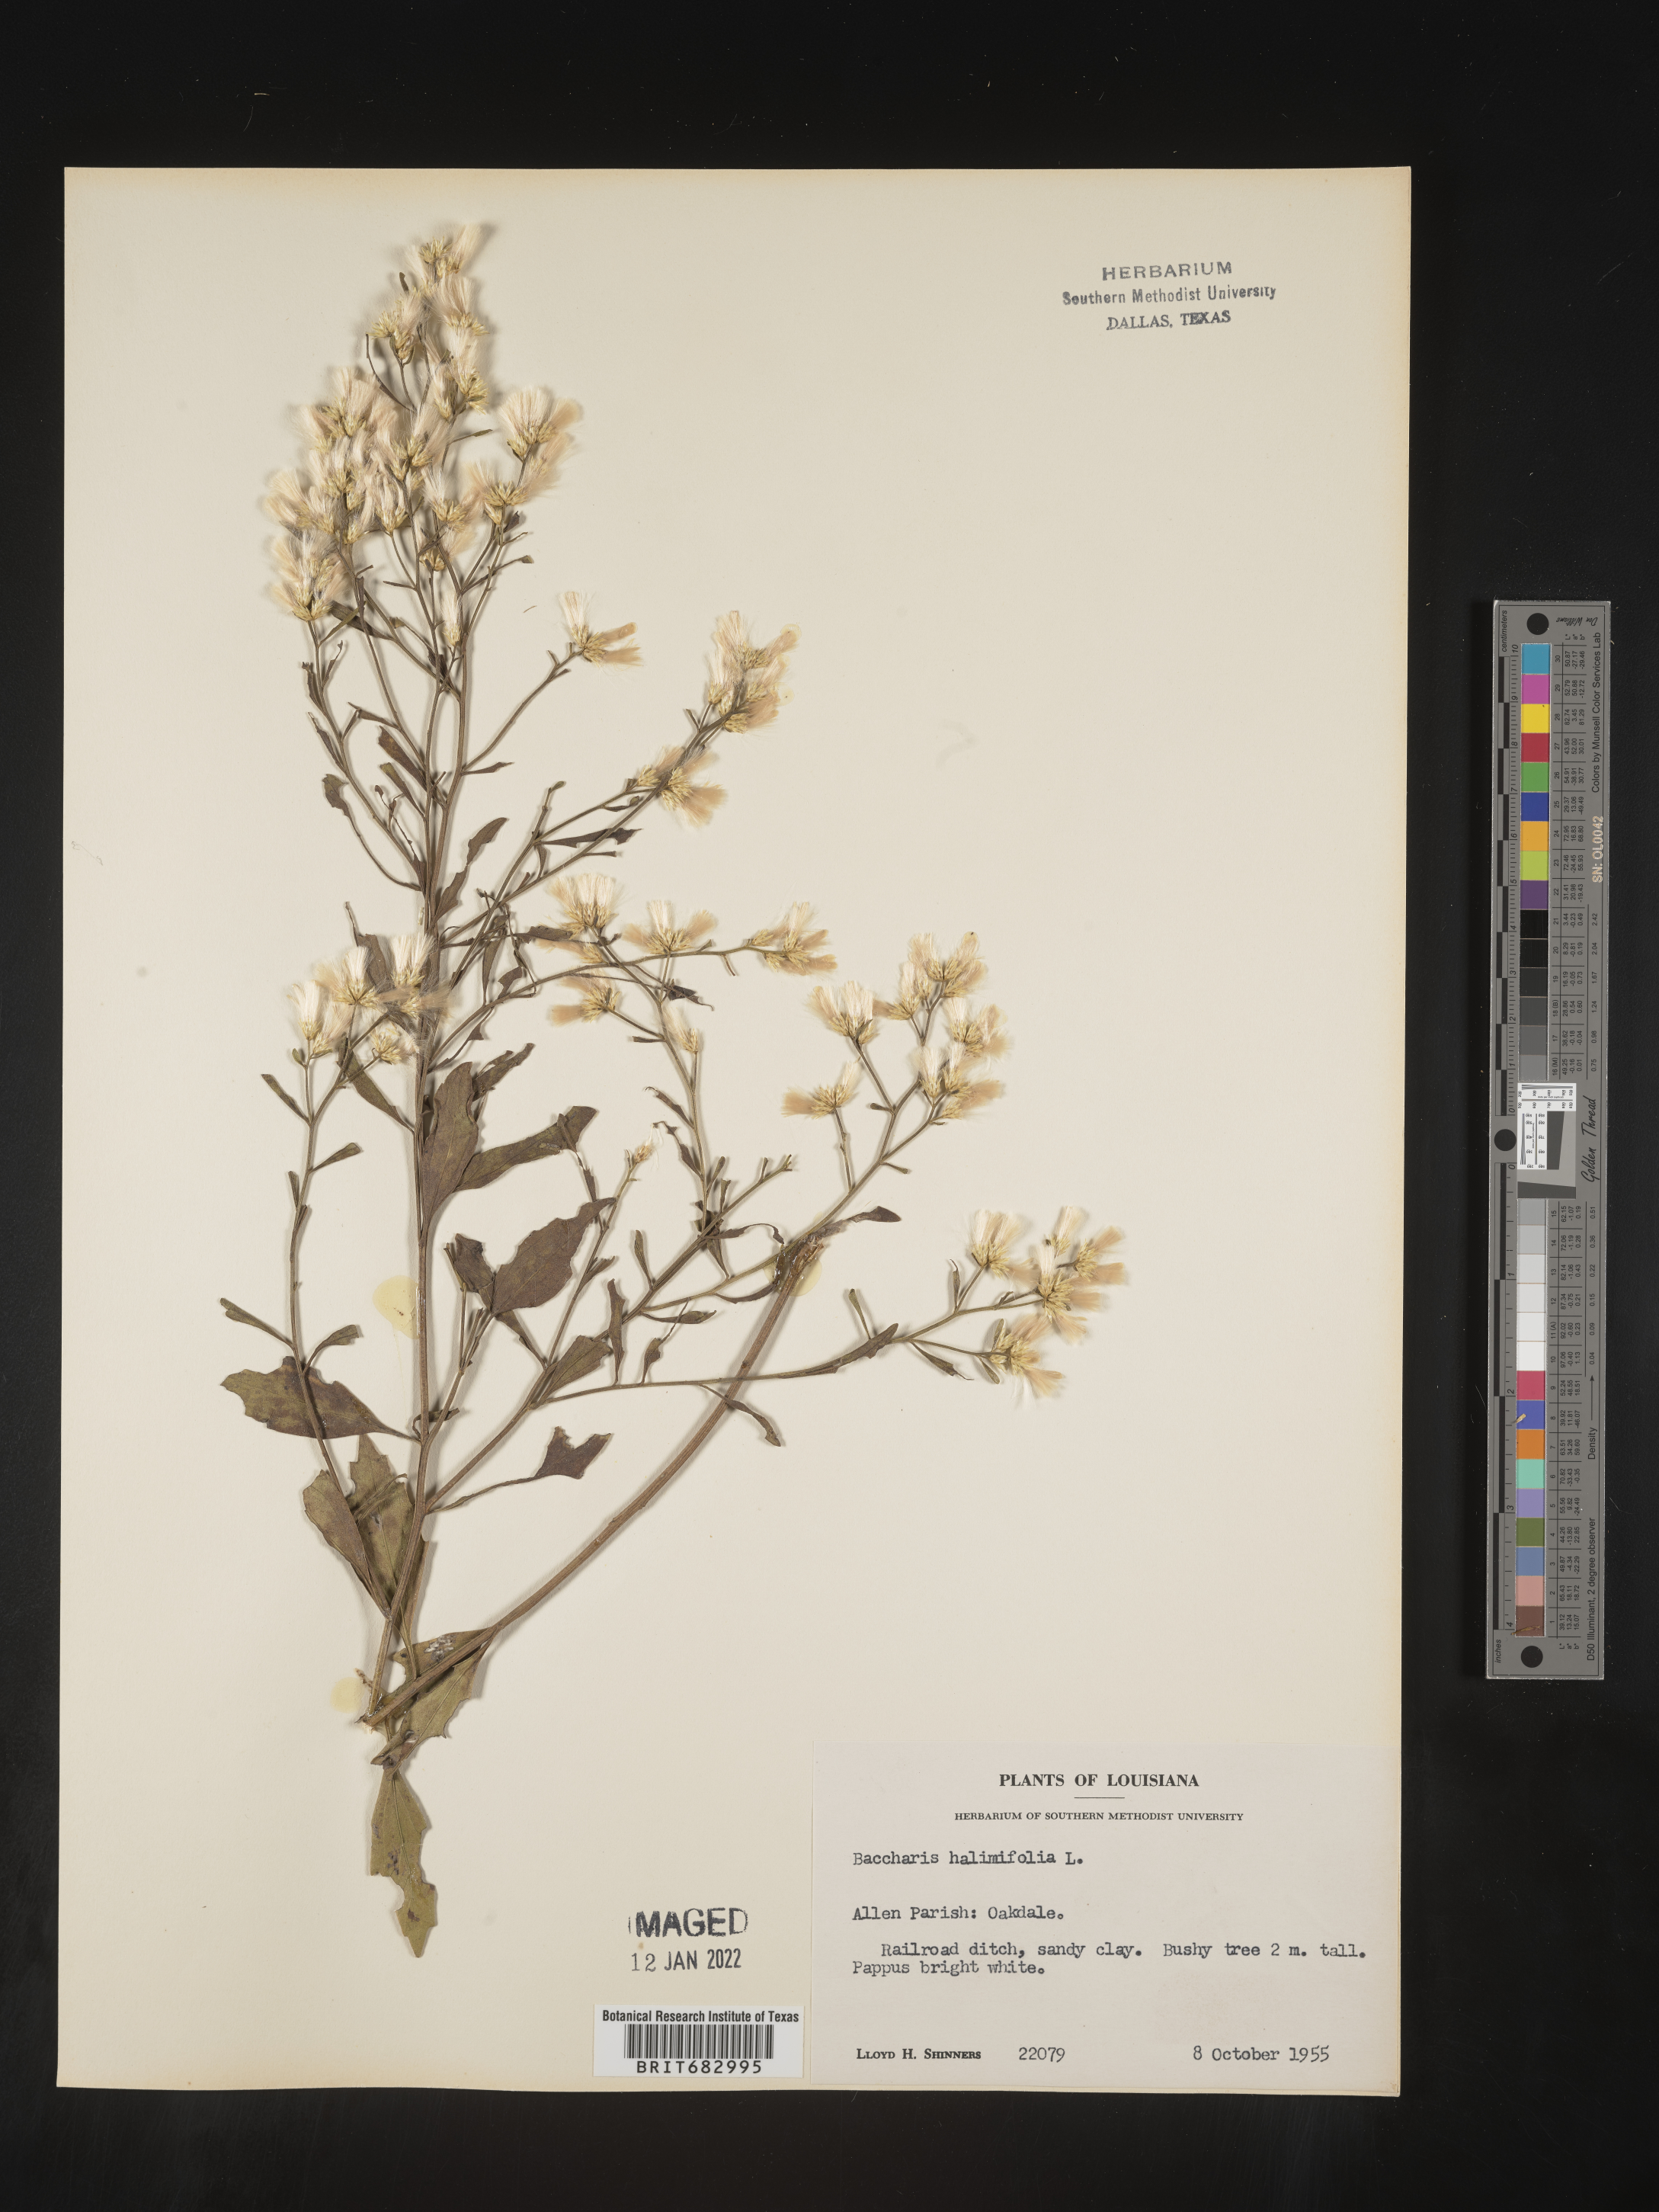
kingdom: Plantae
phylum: Tracheophyta
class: Magnoliopsida
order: Asterales
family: Asteraceae
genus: Nidorella
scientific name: Nidorella ivifolia
